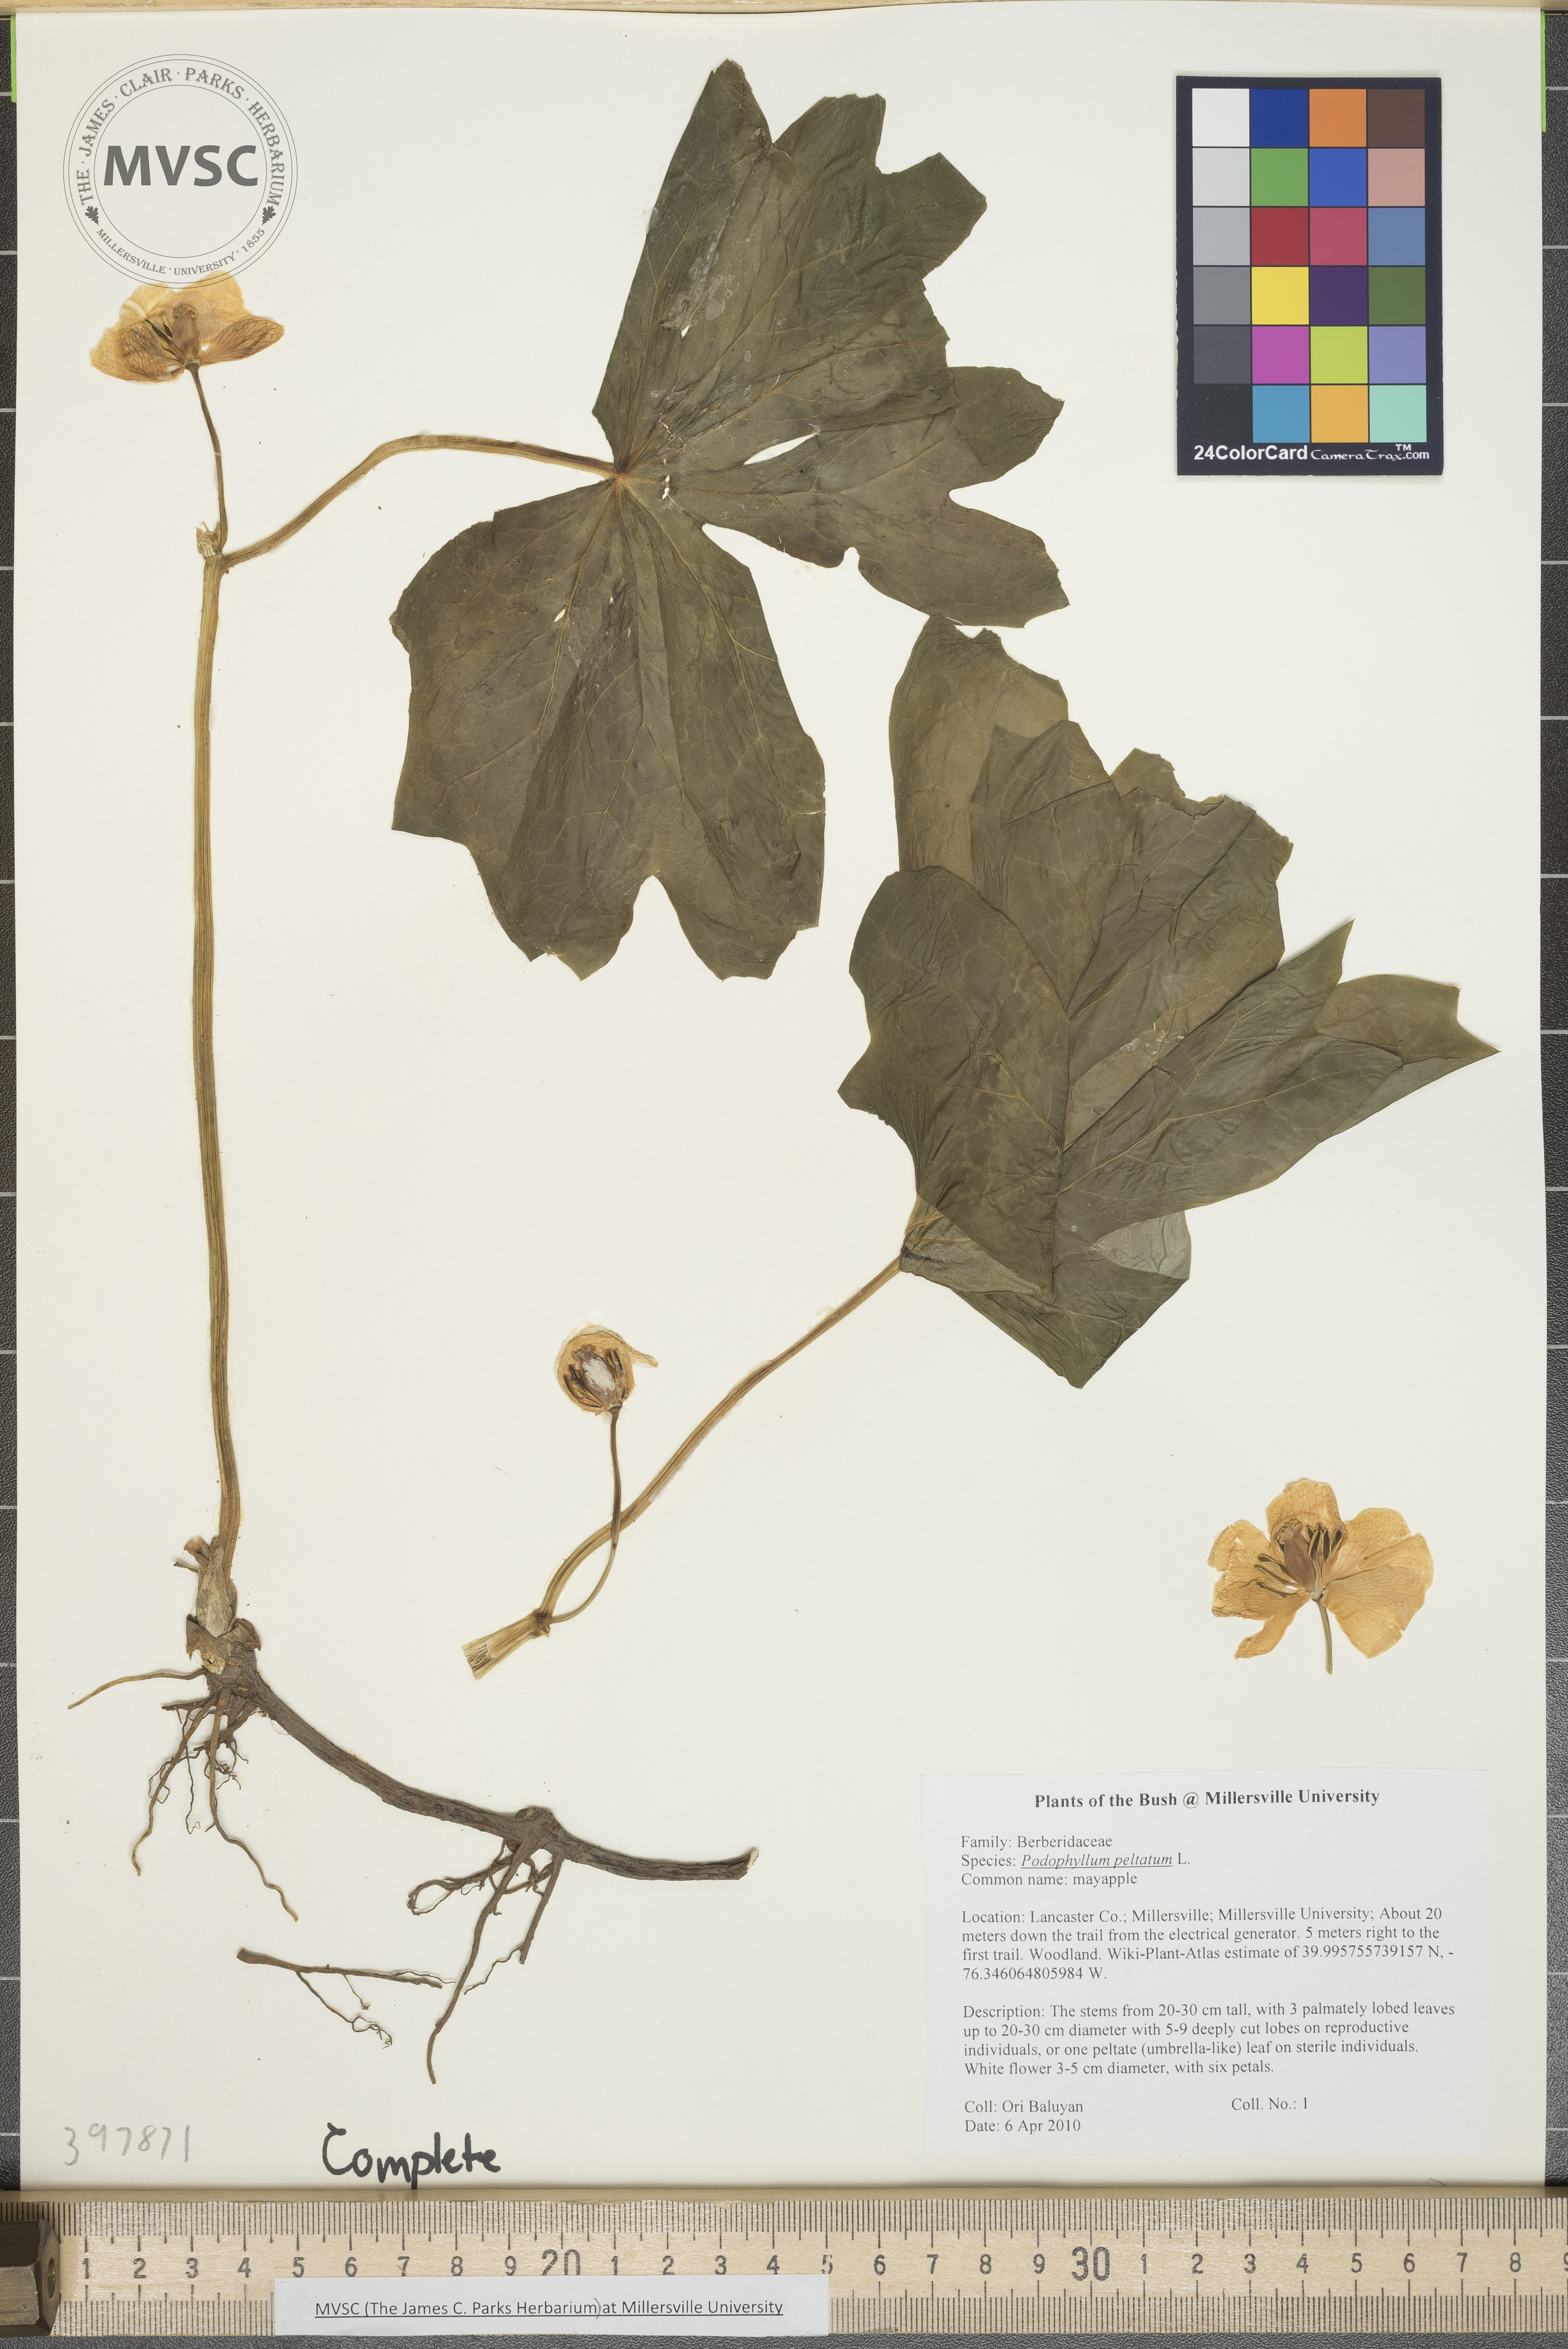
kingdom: Plantae
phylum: Tracheophyta
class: Magnoliopsida
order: Ranunculales
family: Berberidaceae
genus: Podophyllum
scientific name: Podophyllum peltatum
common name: Mayapple
